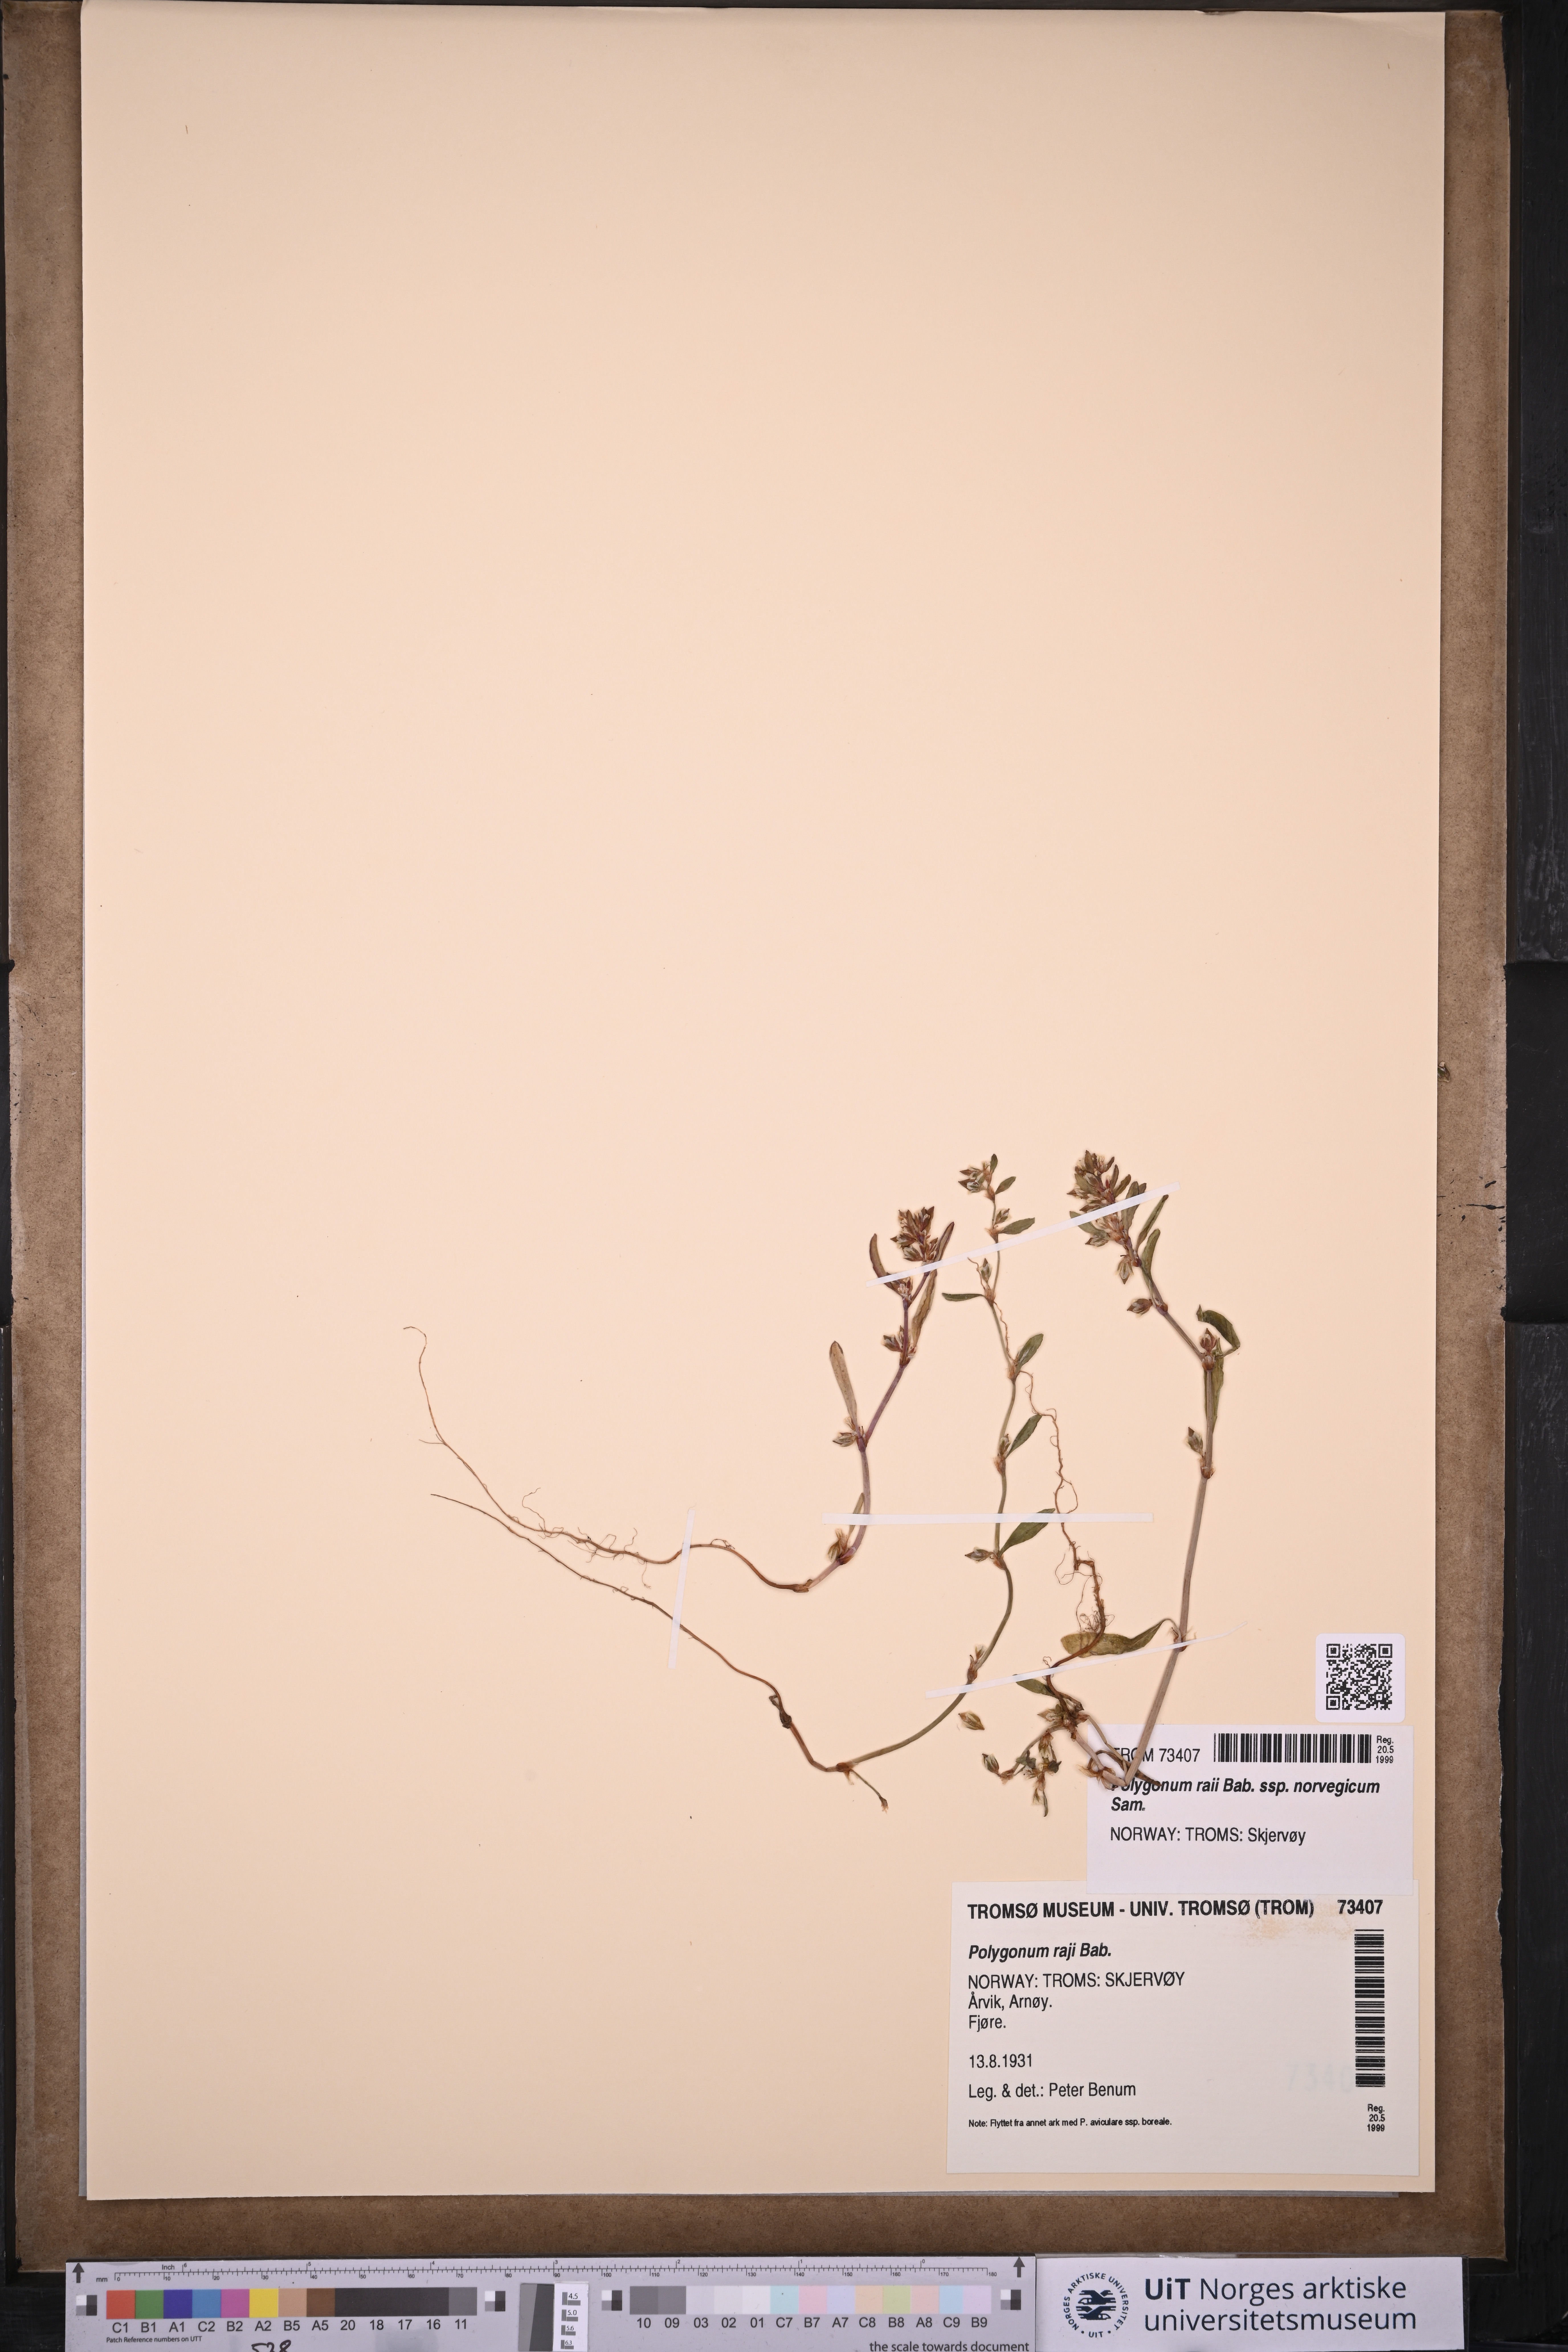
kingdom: Plantae
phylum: Tracheophyta
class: Magnoliopsida
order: Caryophyllales
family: Polygonaceae
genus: Polygonum
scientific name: Polygonum norvegicum
